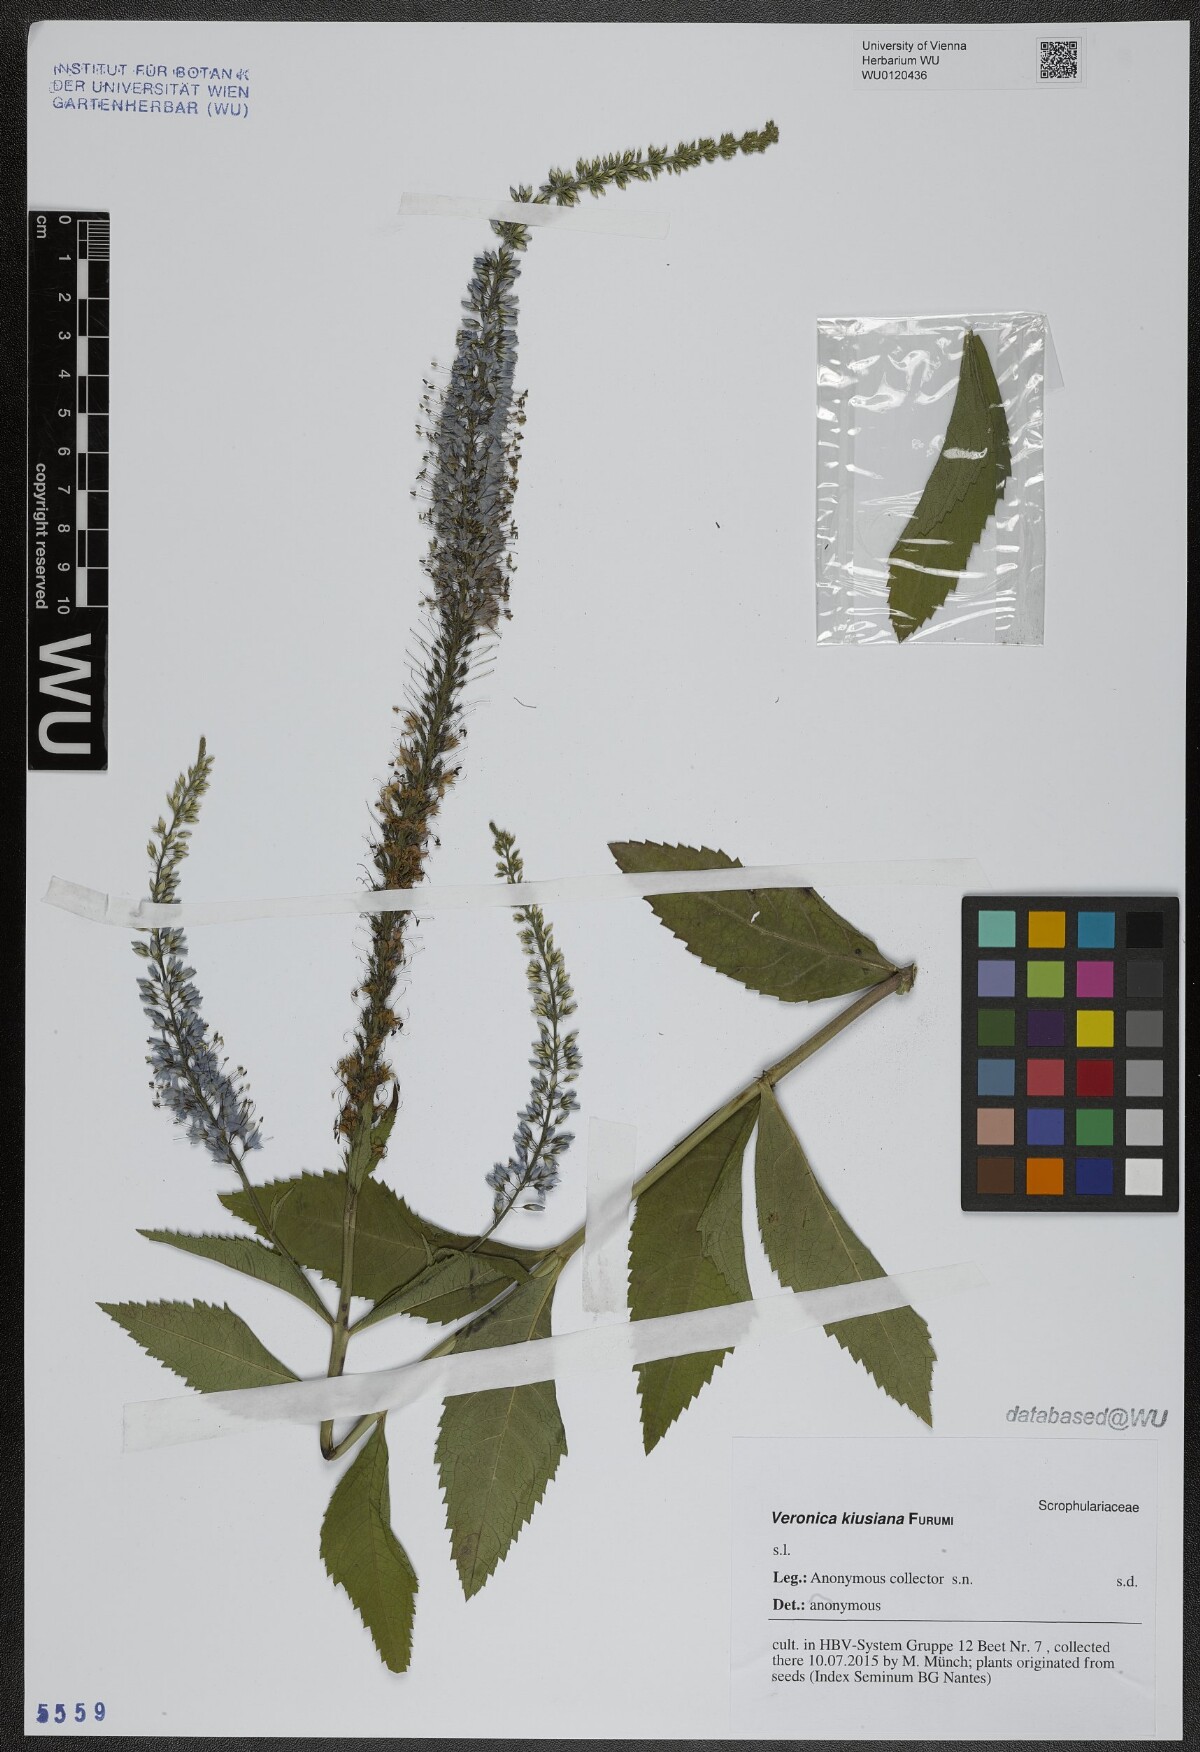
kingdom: Plantae
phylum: Tracheophyta
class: Magnoliopsida
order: Lamiales
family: Plantaginaceae
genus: Veronica
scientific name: Veronica ovata
